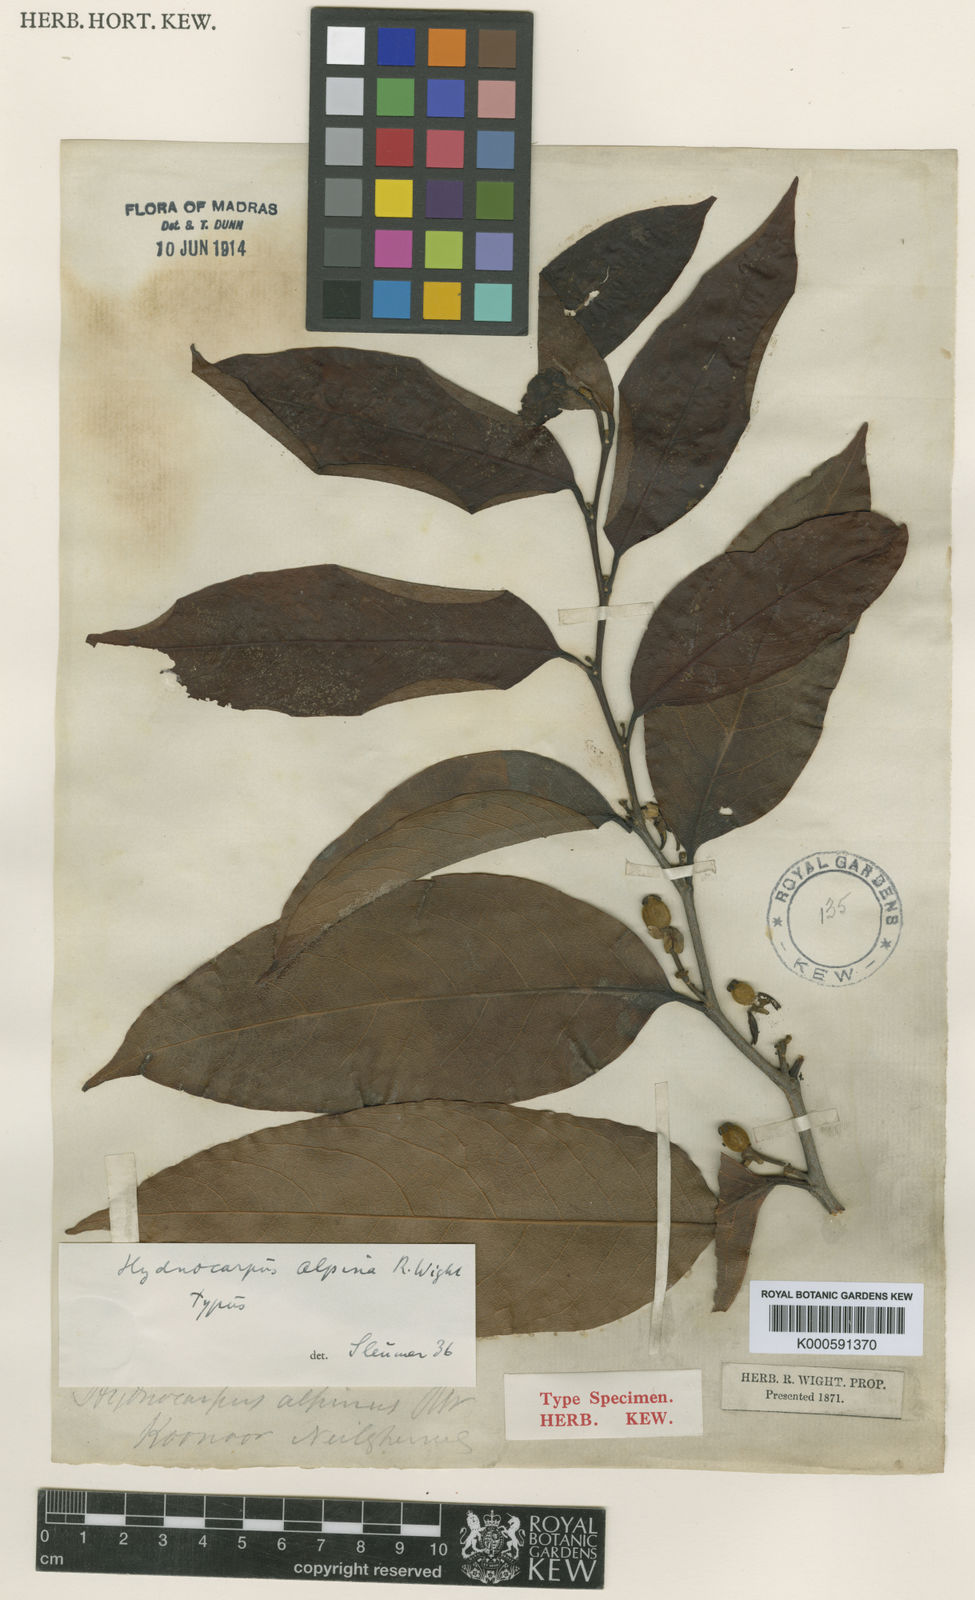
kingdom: Plantae
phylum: Tracheophyta
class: Magnoliopsida
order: Malpighiales
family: Achariaceae
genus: Hydnocarpus
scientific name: Hydnocarpus alpinus
